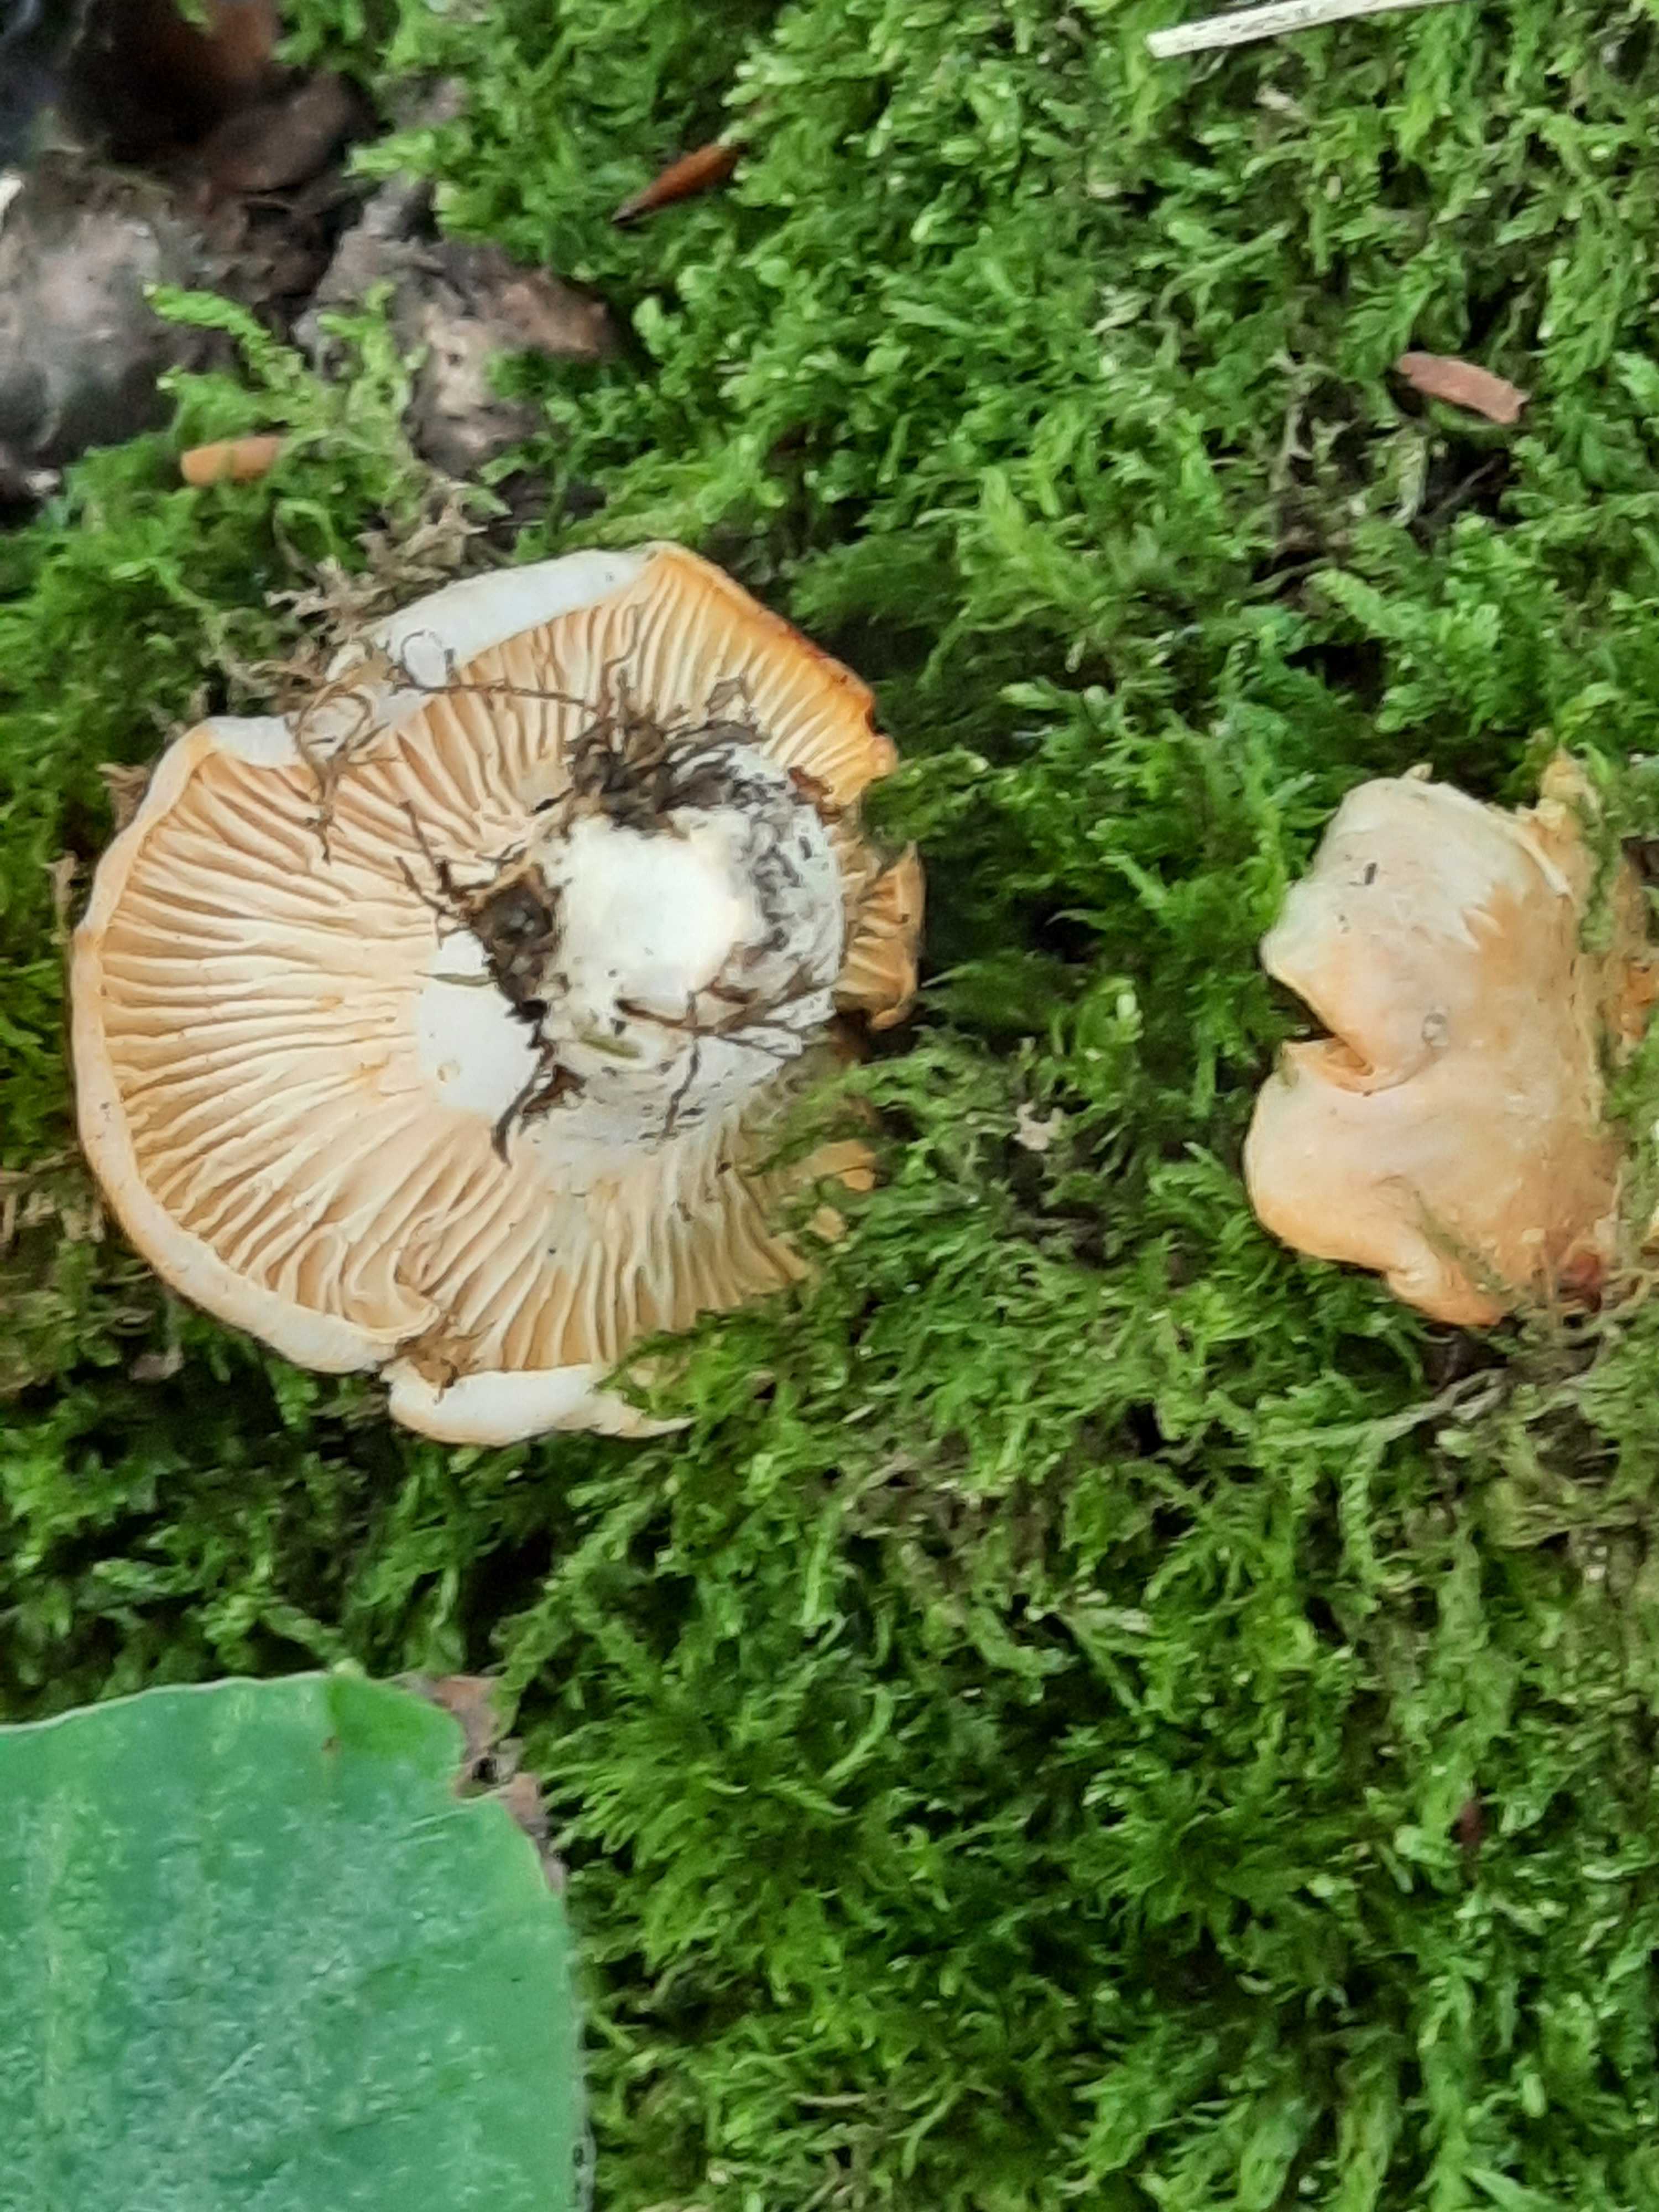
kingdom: Fungi
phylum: Basidiomycota
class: Agaricomycetes
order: Cantharellales
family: Hydnaceae
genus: Cantharellus
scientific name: Cantharellus cibarius
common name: almindelig kantarel
